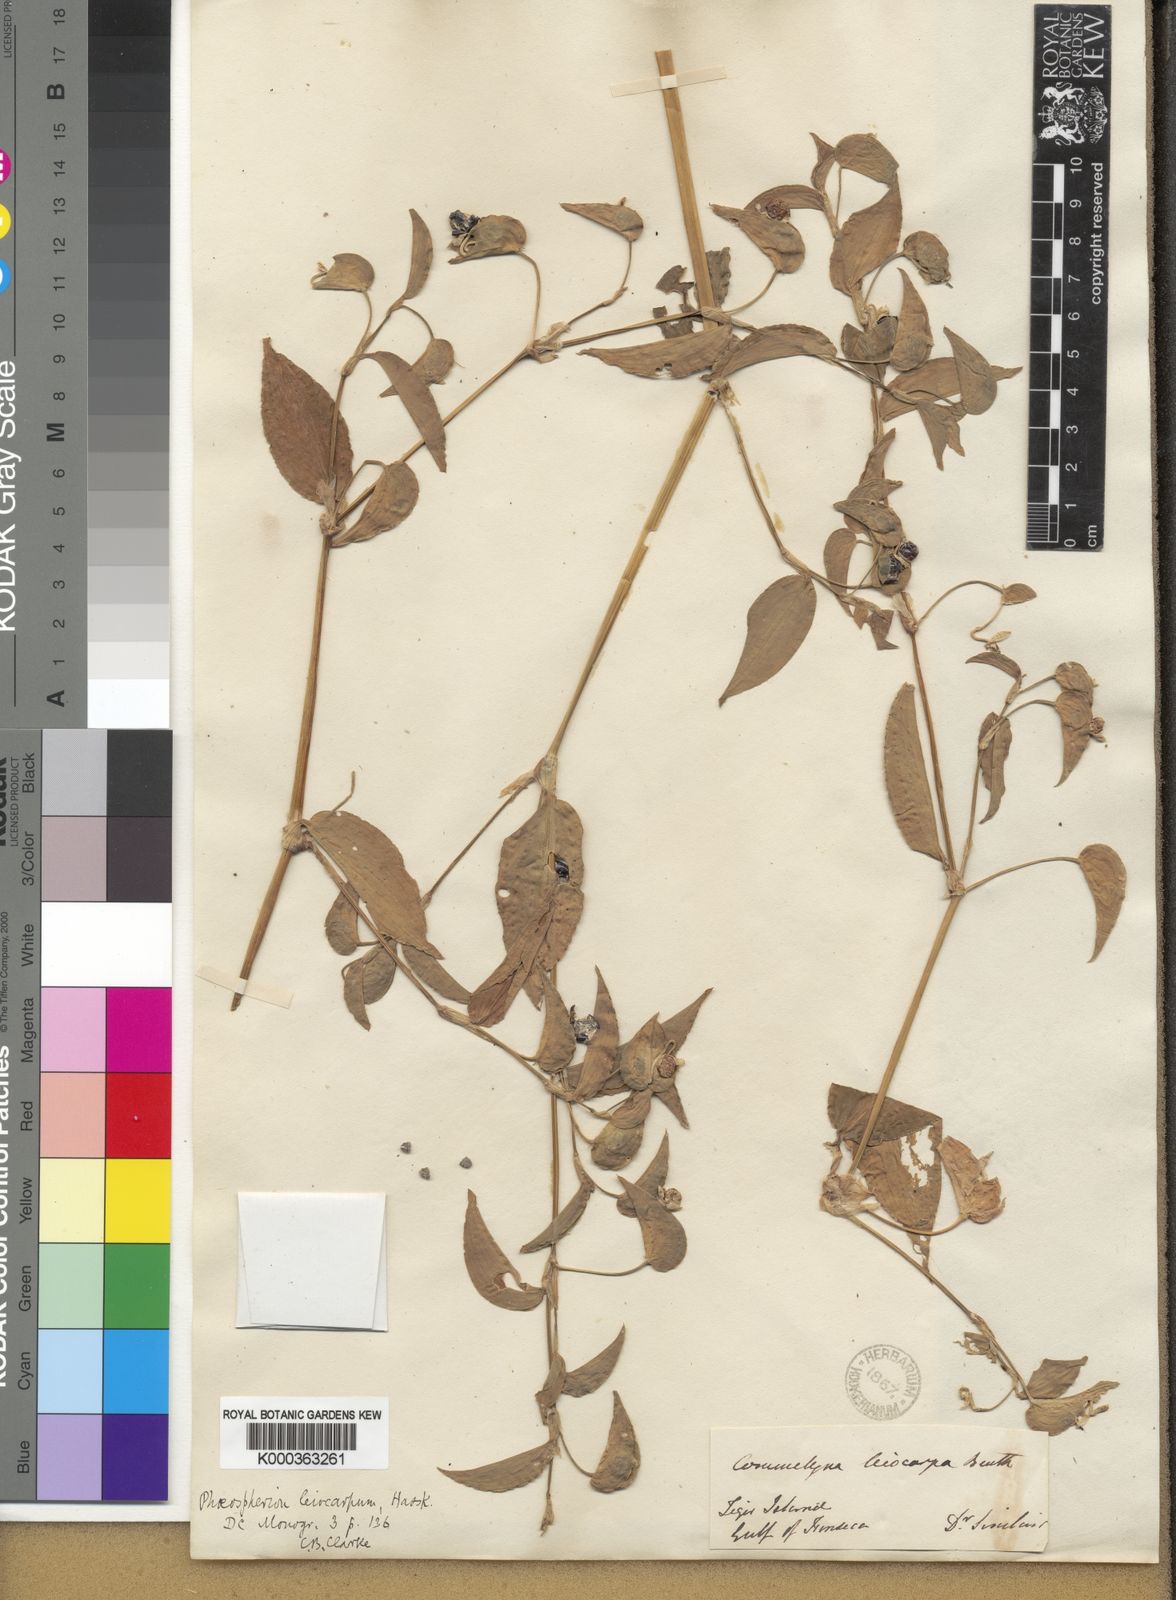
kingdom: Plantae
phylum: Tracheophyta
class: Liliopsida
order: Commelinales
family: Commelinaceae
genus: Commelina
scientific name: Commelina leiocarpa
